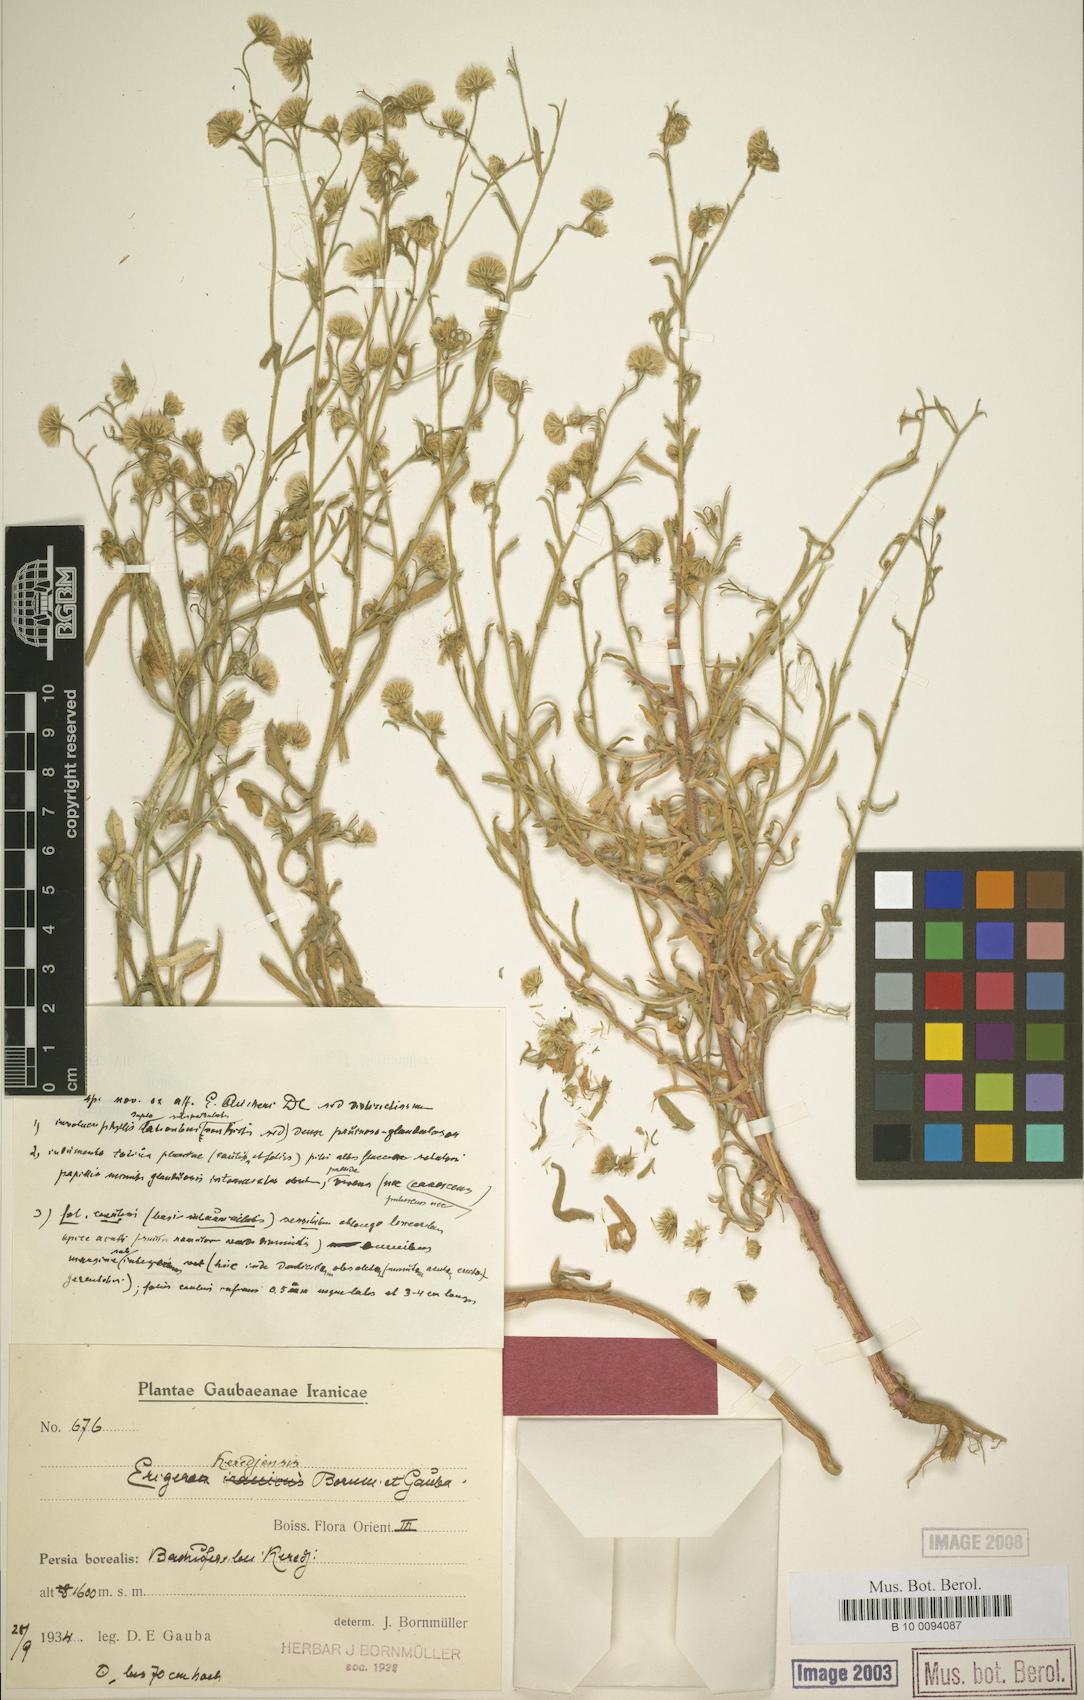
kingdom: Plantae
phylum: Tracheophyta
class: Magnoliopsida
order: Asterales
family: Asteraceae
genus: Chamaegeron
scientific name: Chamaegeron keredjensis
